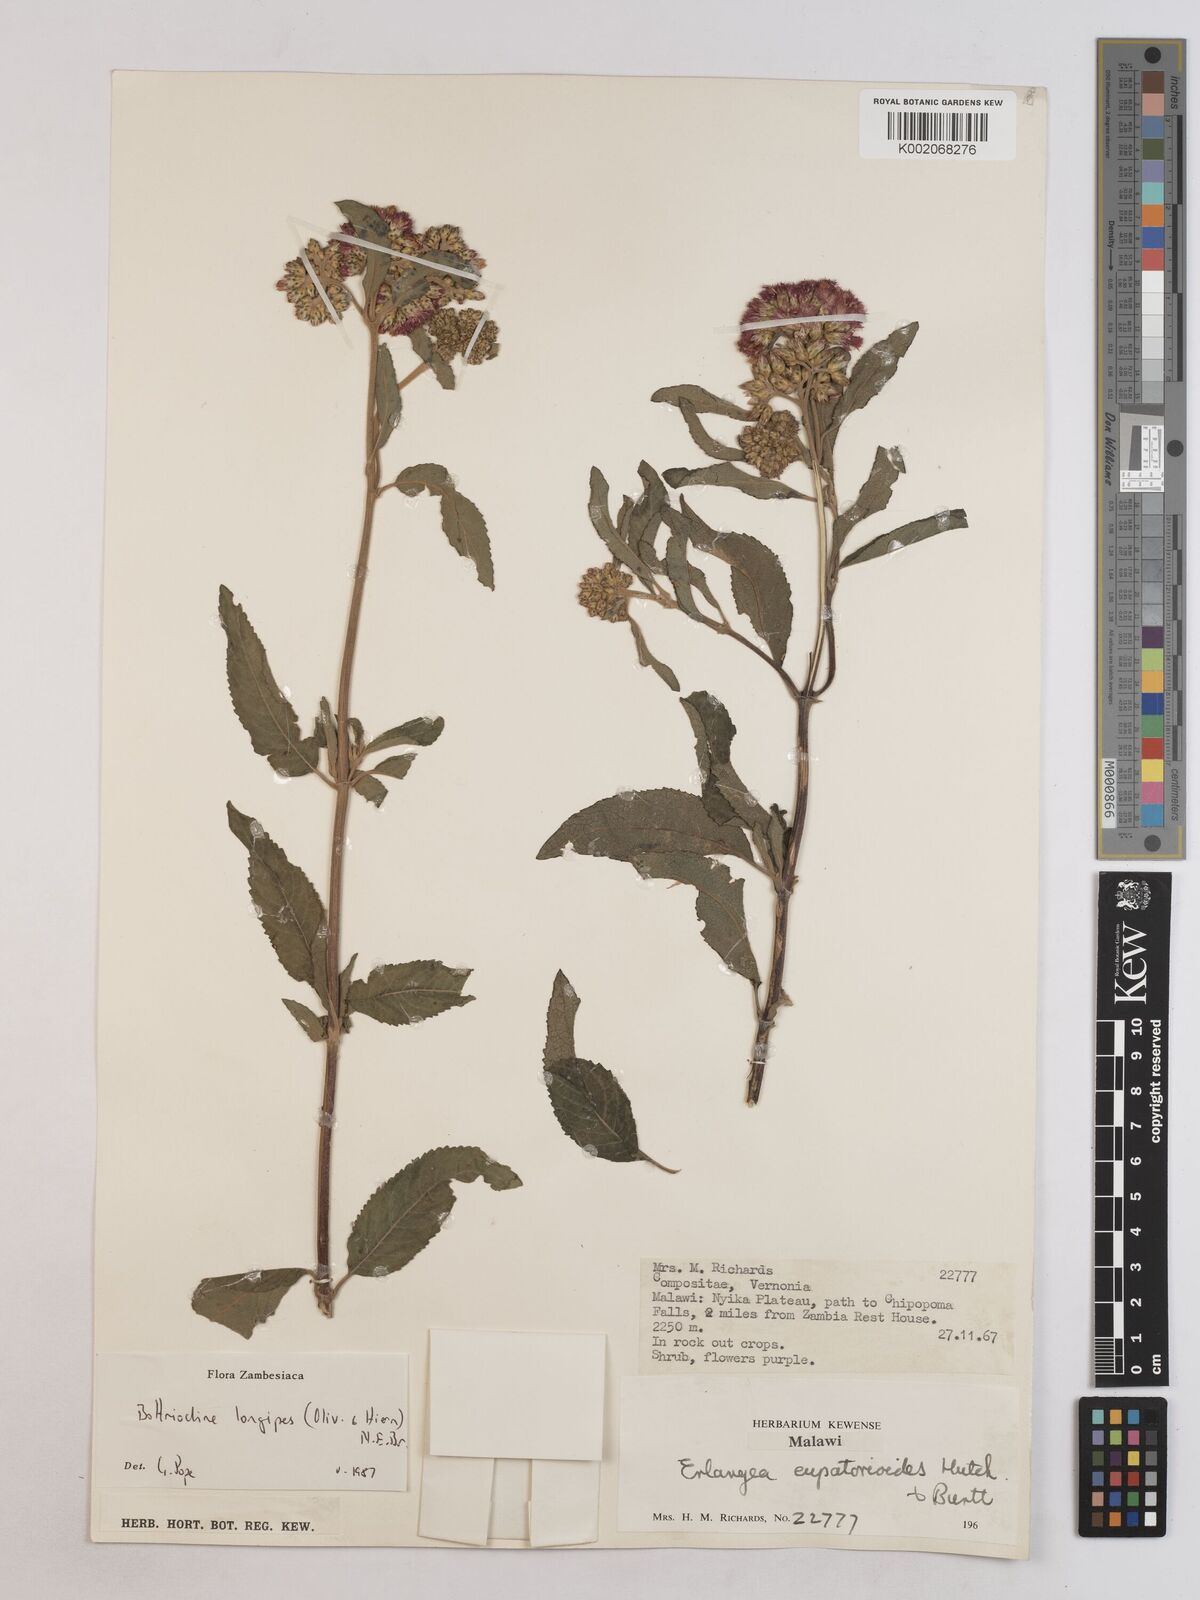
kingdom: Plantae
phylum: Tracheophyta
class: Magnoliopsida
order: Asterales
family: Asteraceae
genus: Bothriocline
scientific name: Bothriocline longipes
